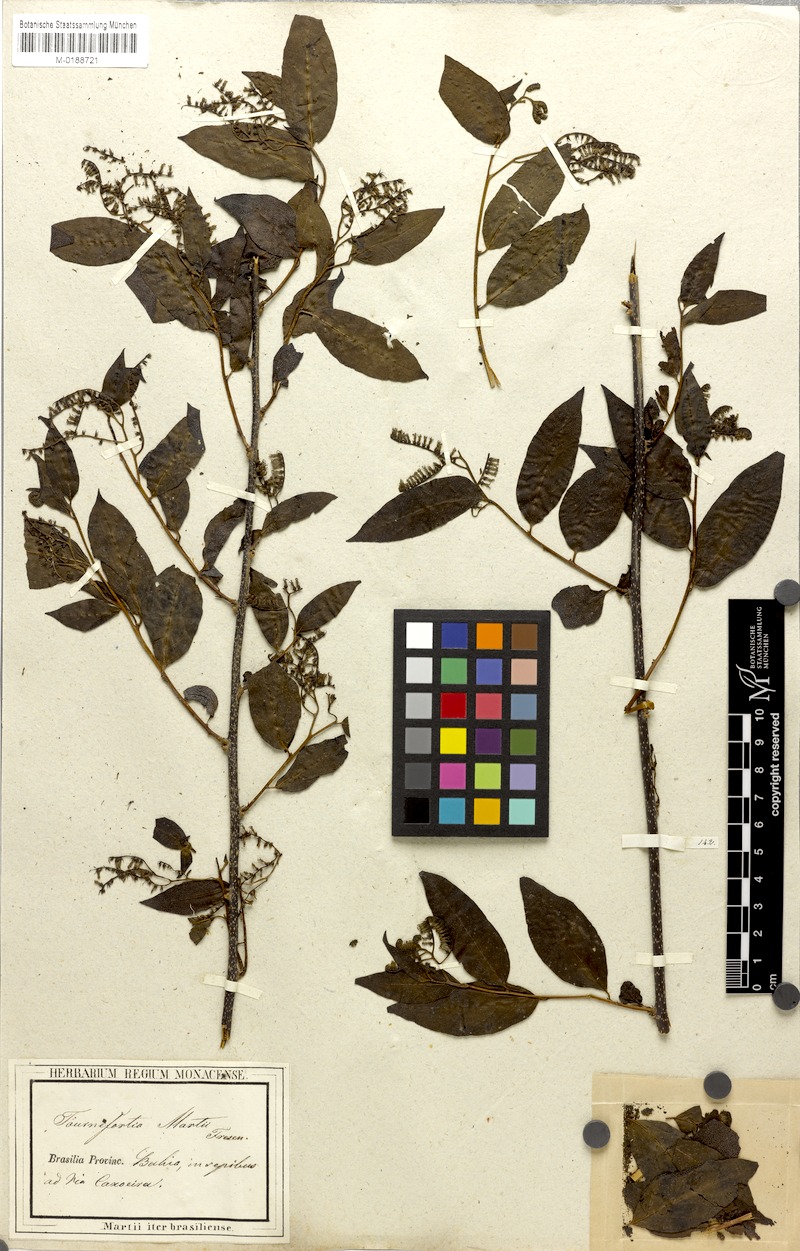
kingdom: Plantae
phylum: Tracheophyta
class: Magnoliopsida
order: Boraginales
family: Heliotropiaceae
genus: Myriopus
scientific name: Myriopus rubicundus
